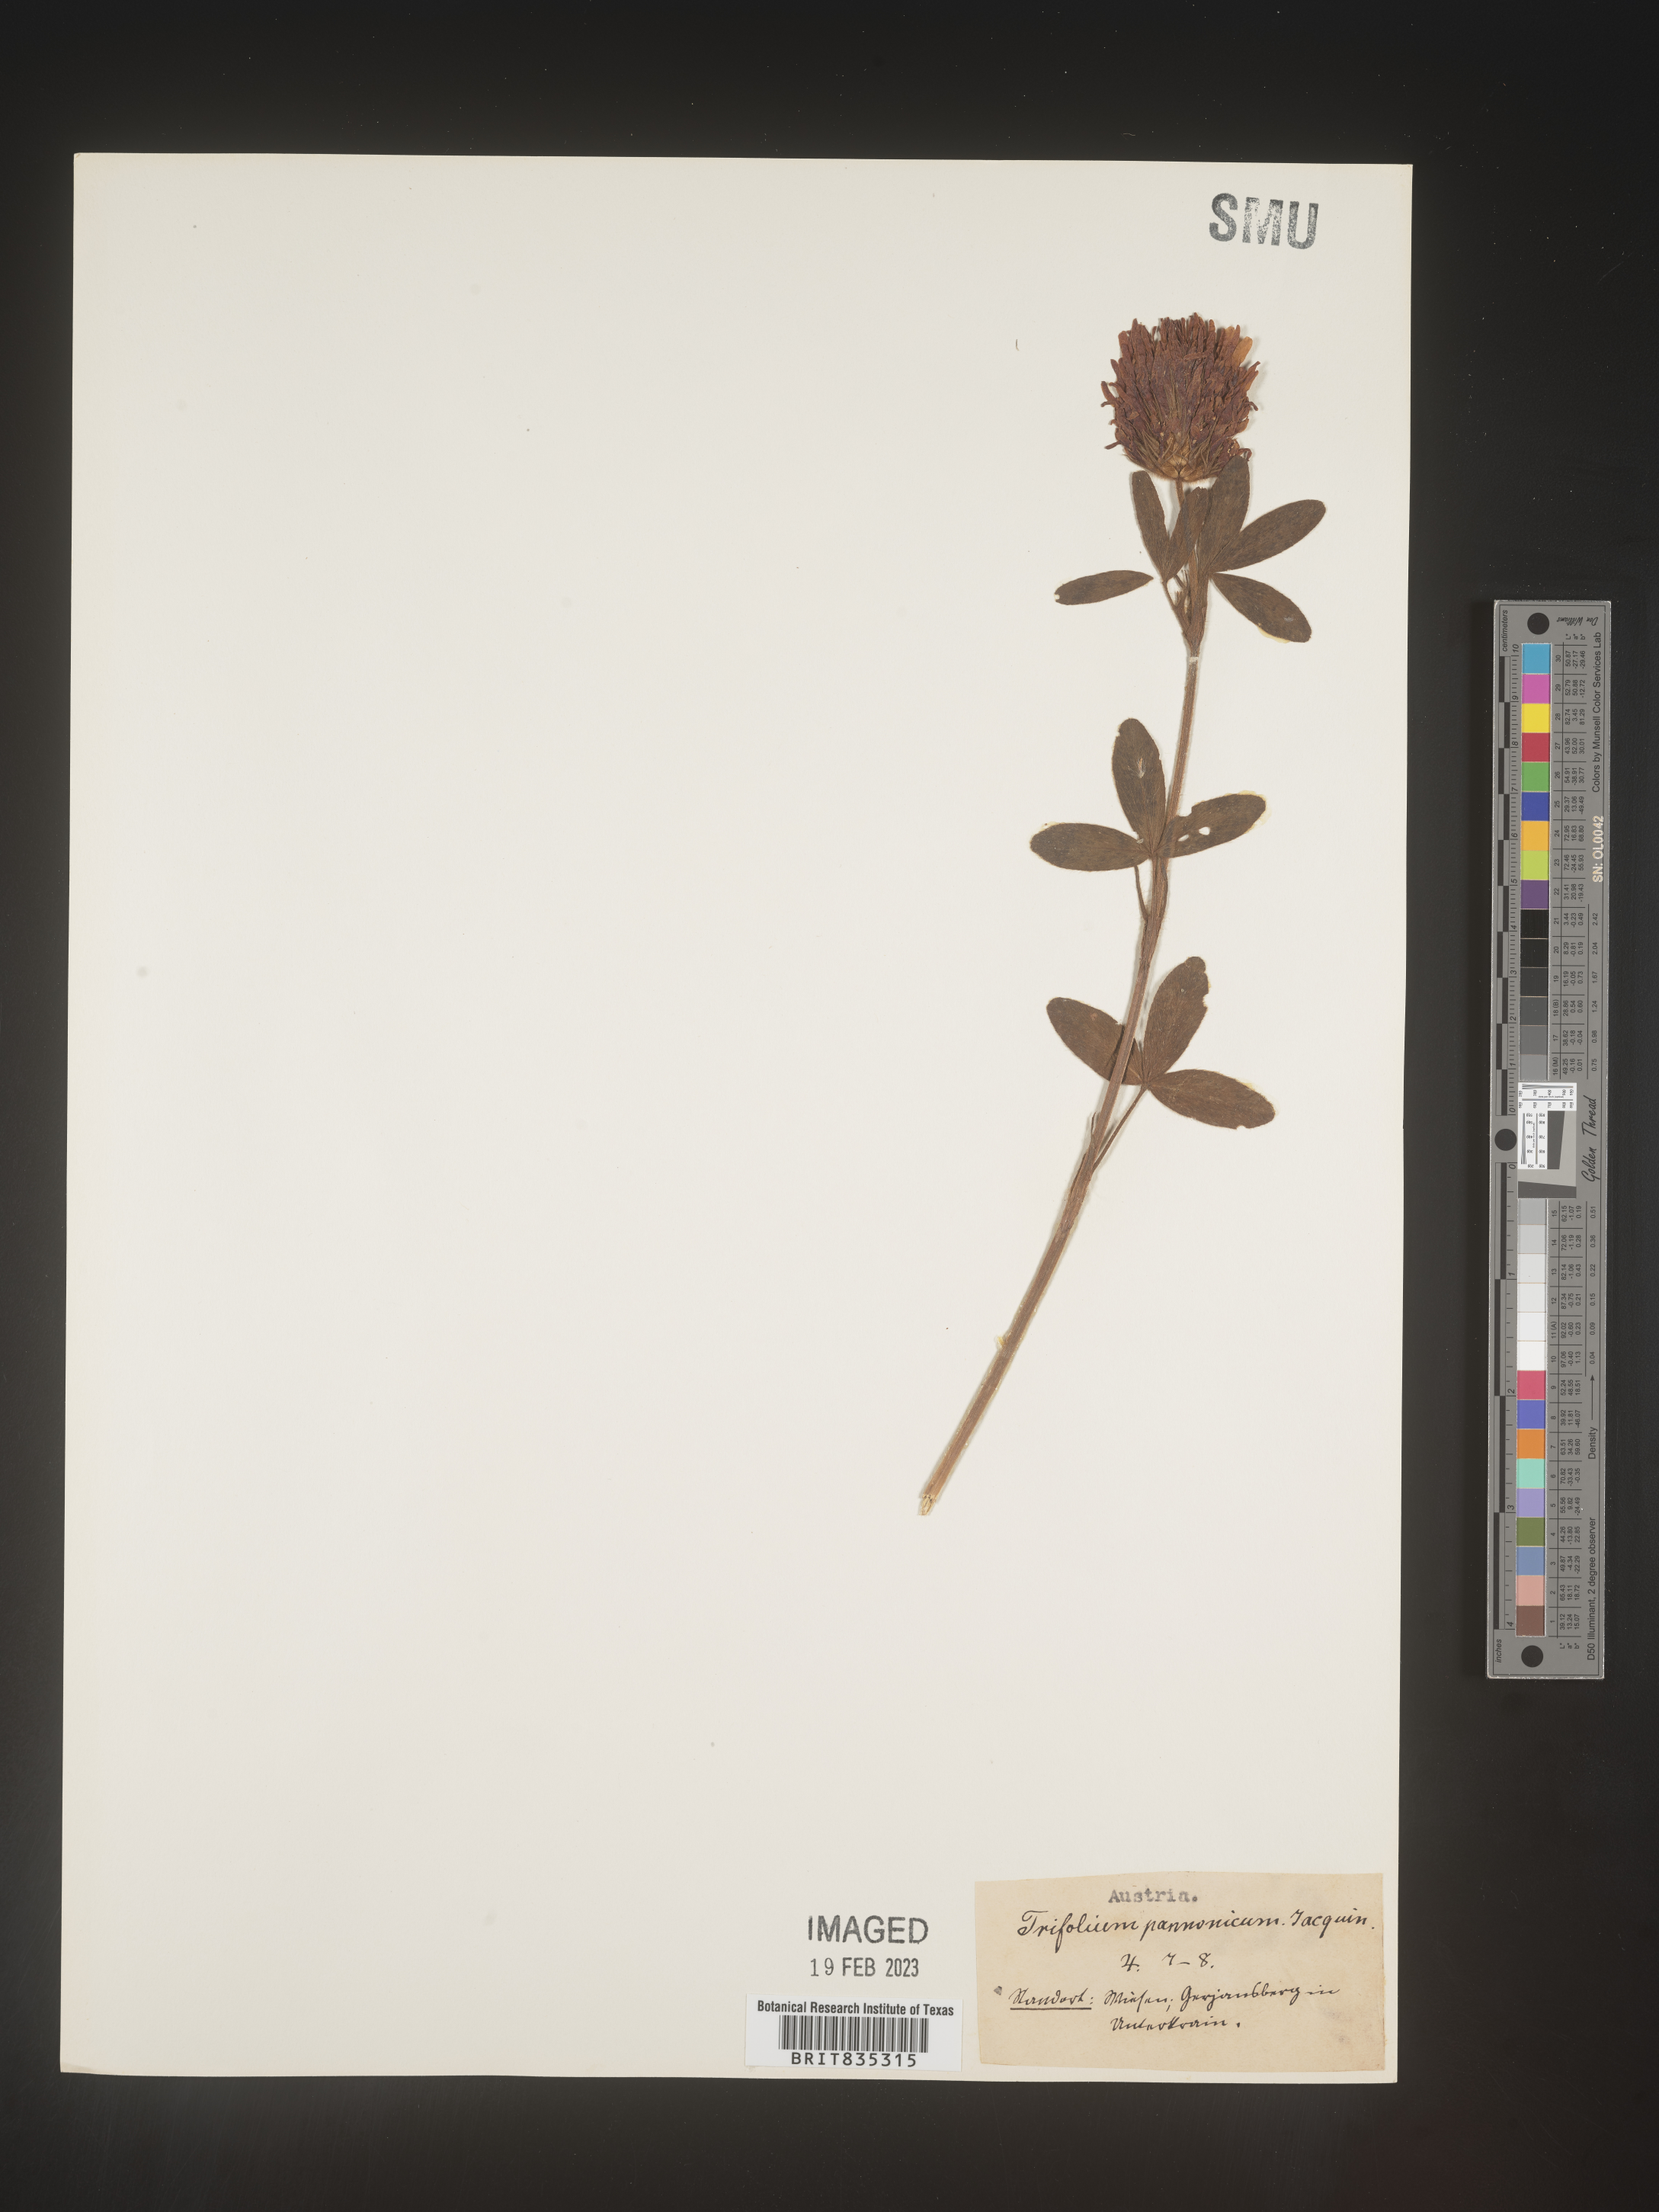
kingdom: Plantae
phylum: Tracheophyta
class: Magnoliopsida
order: Fabales
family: Fabaceae
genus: Trifolium
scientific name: Trifolium
